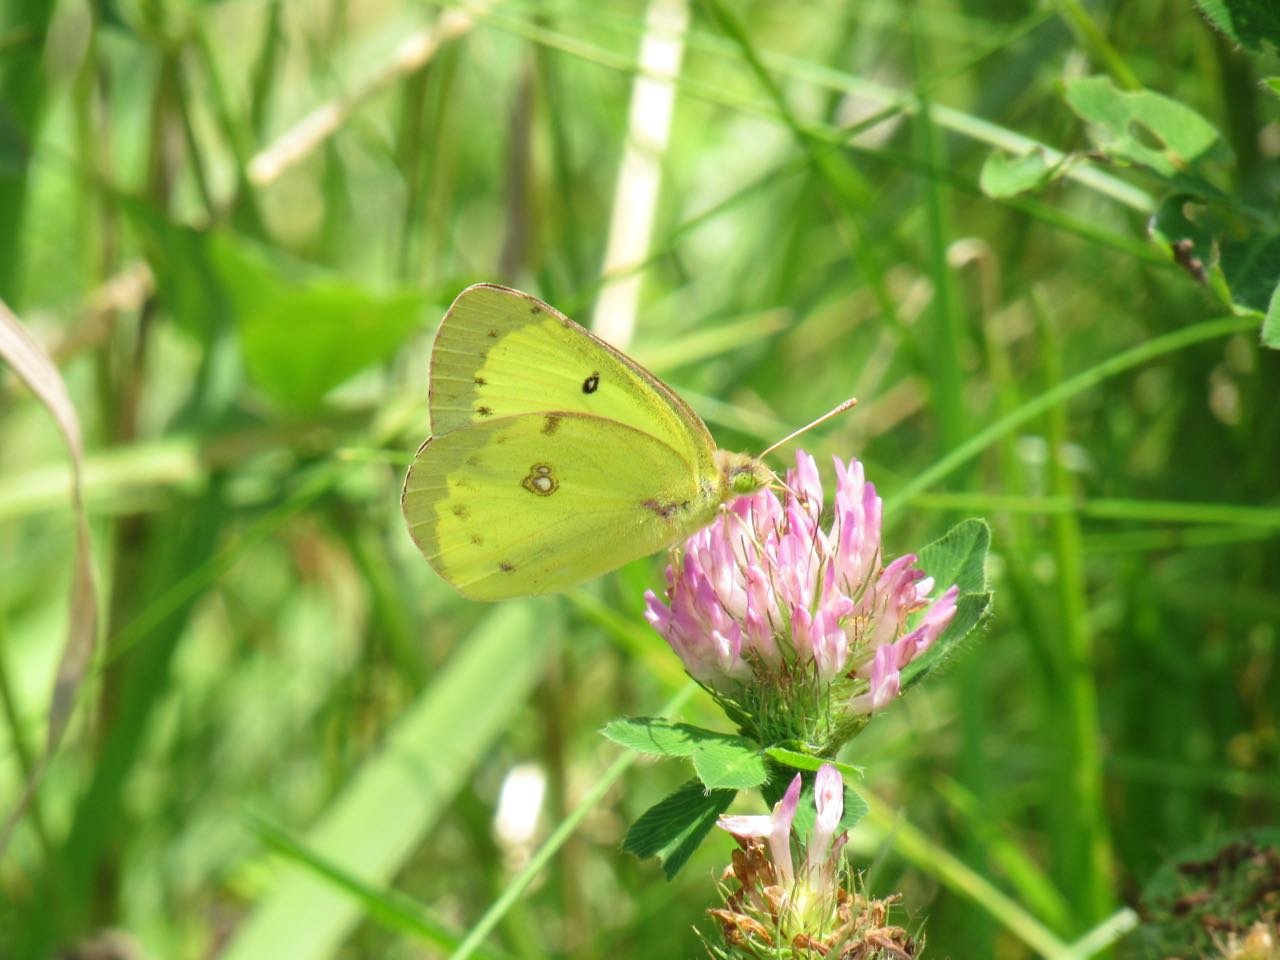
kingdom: Animalia
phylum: Arthropoda
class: Insecta
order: Lepidoptera
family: Pieridae
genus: Colias
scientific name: Colias philodice
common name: Clouded Sulphur
